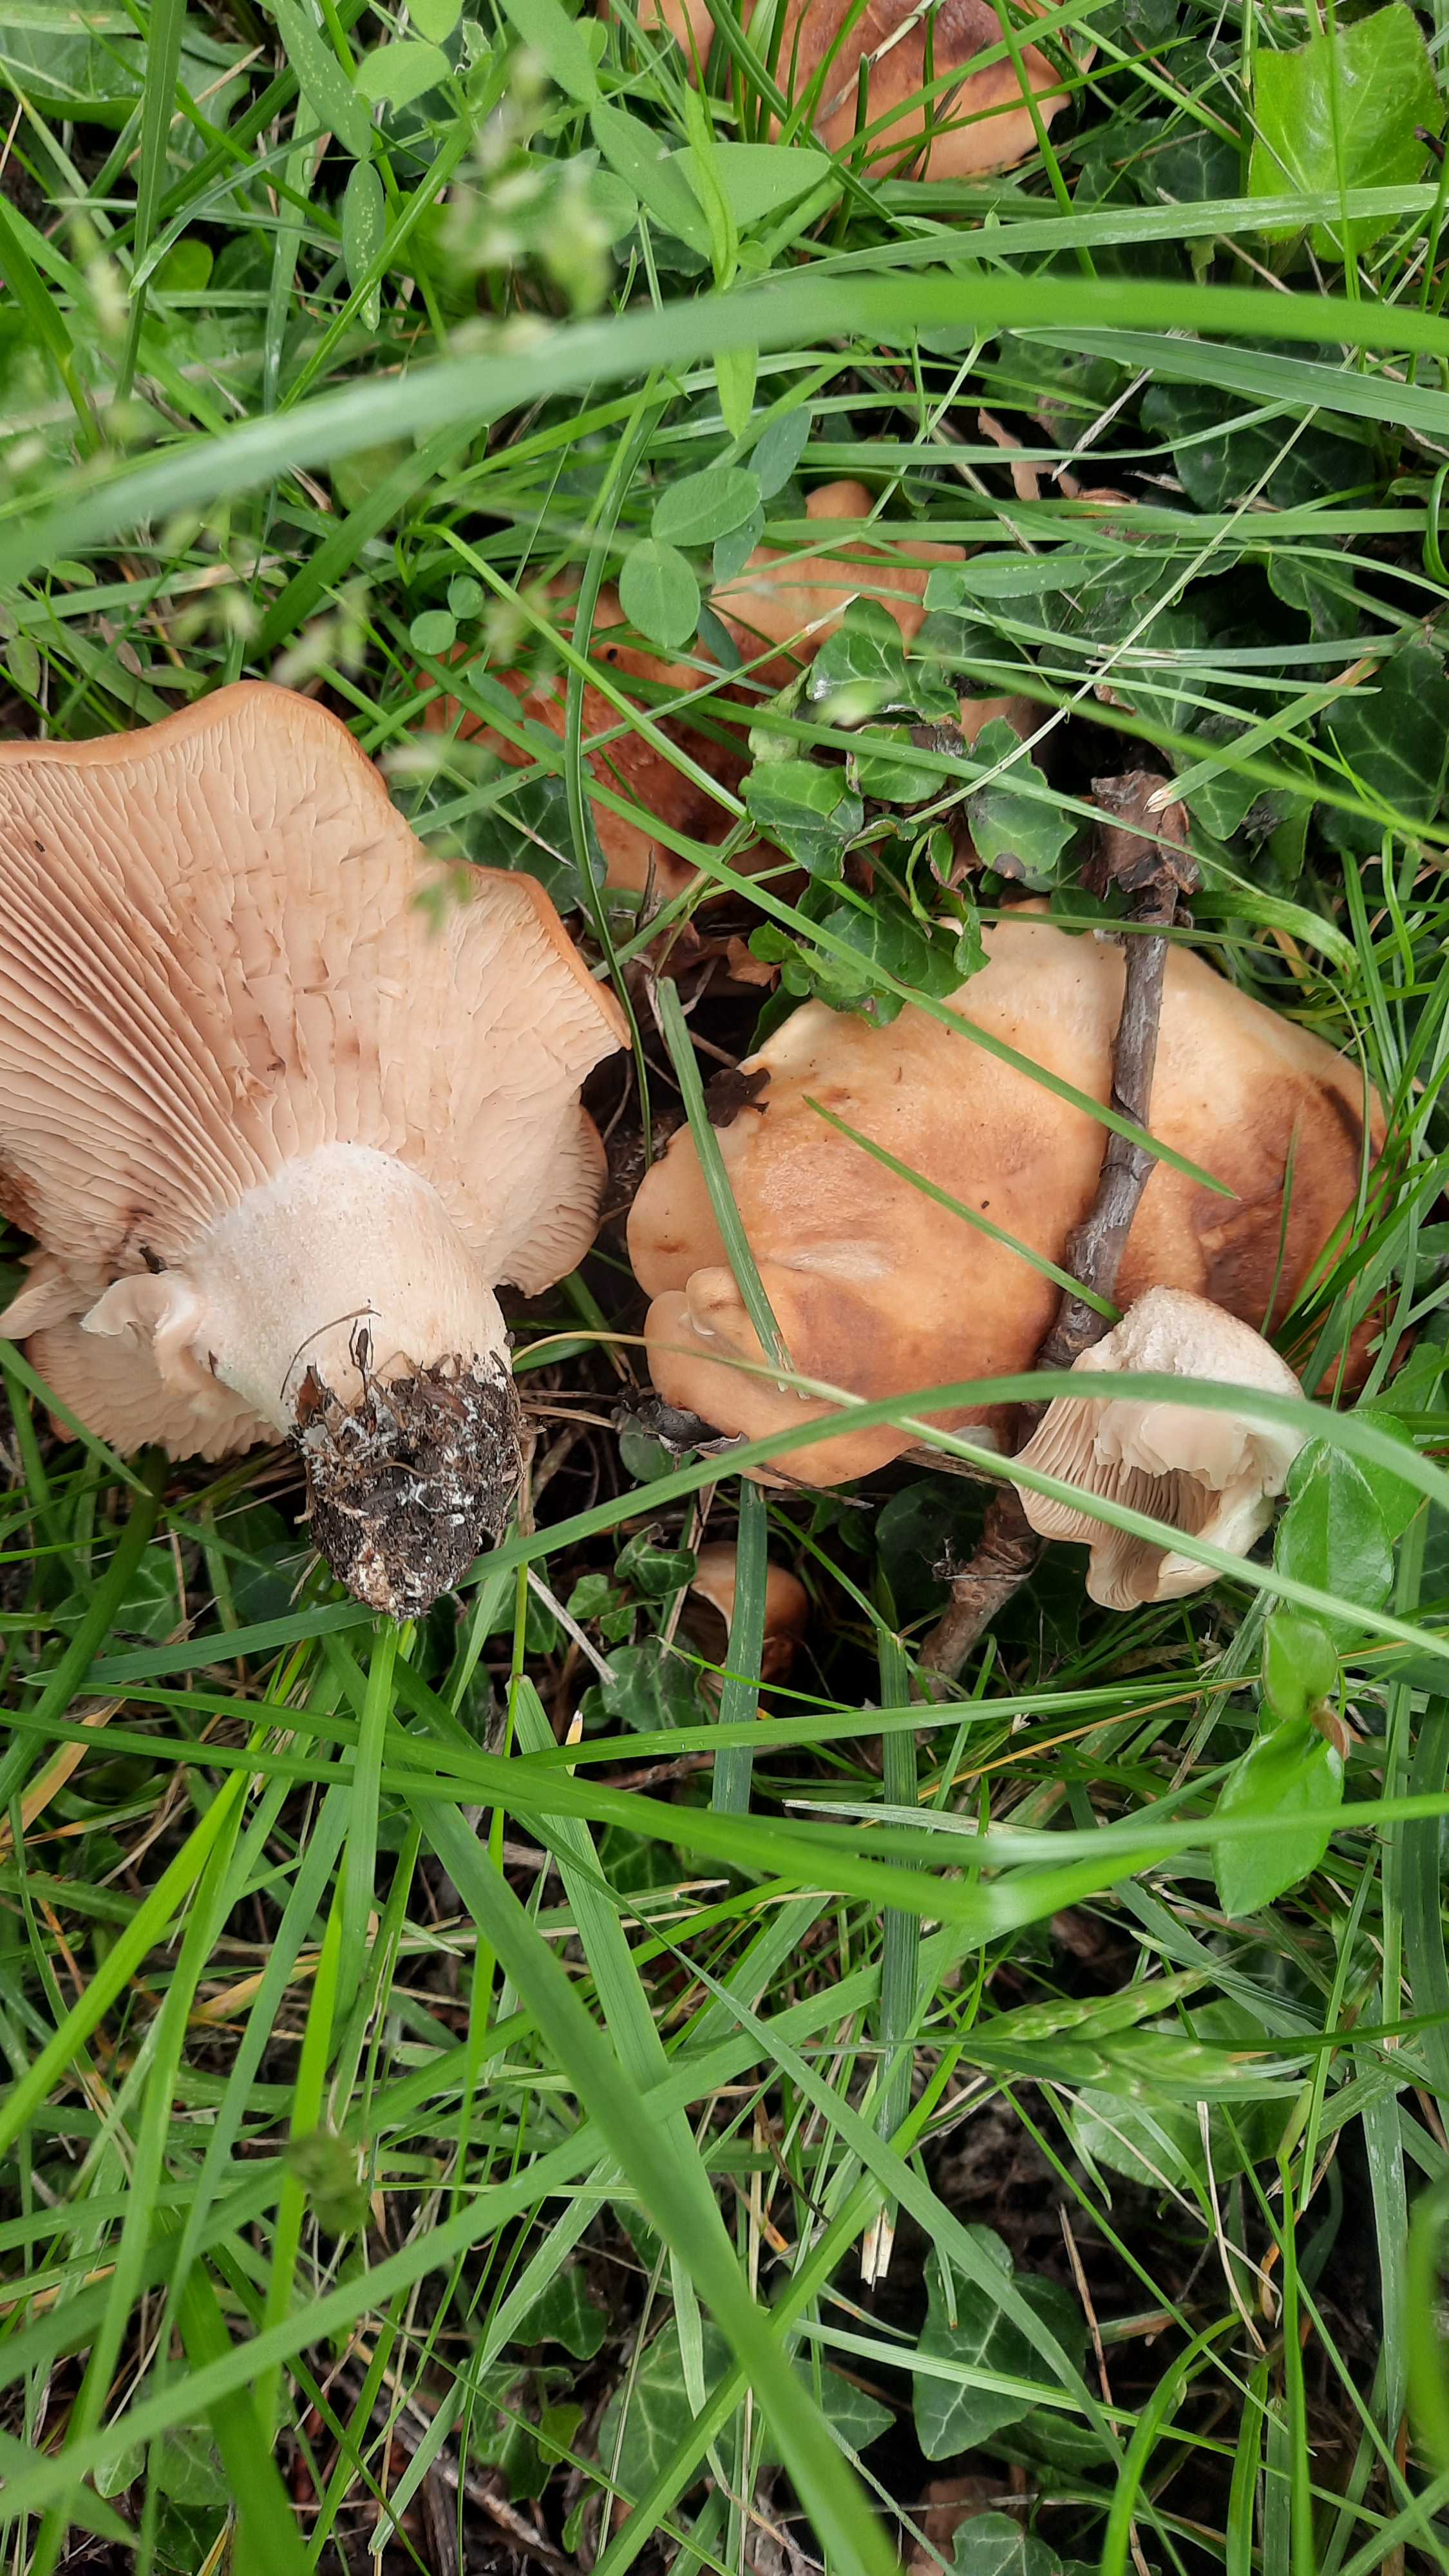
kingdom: Fungi
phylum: Basidiomycota
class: Agaricomycetes
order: Agaricales
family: Entolomataceae
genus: Clitopilus
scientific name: Clitopilus geminus
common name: kødfarvet troldhat
